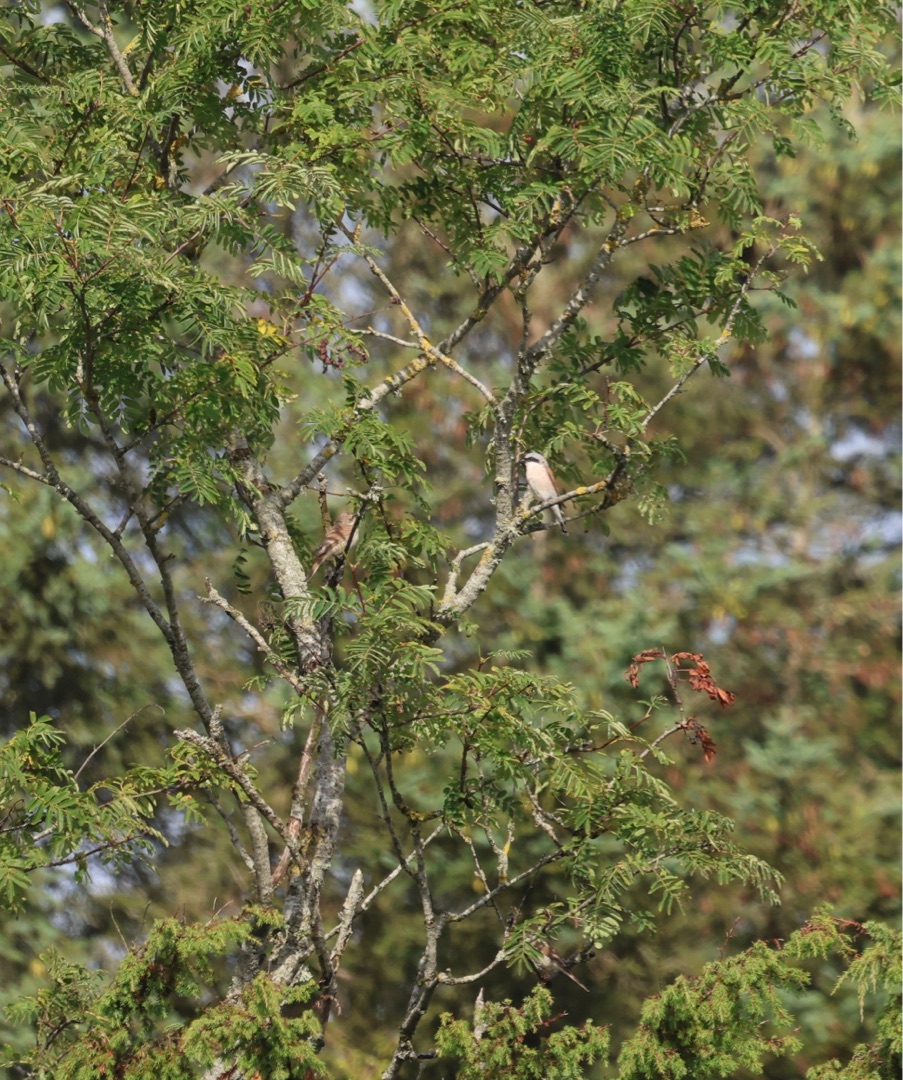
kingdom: Animalia
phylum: Chordata
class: Aves
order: Passeriformes
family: Laniidae
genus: Lanius
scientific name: Lanius collurio
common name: Rødrygget tornskade
